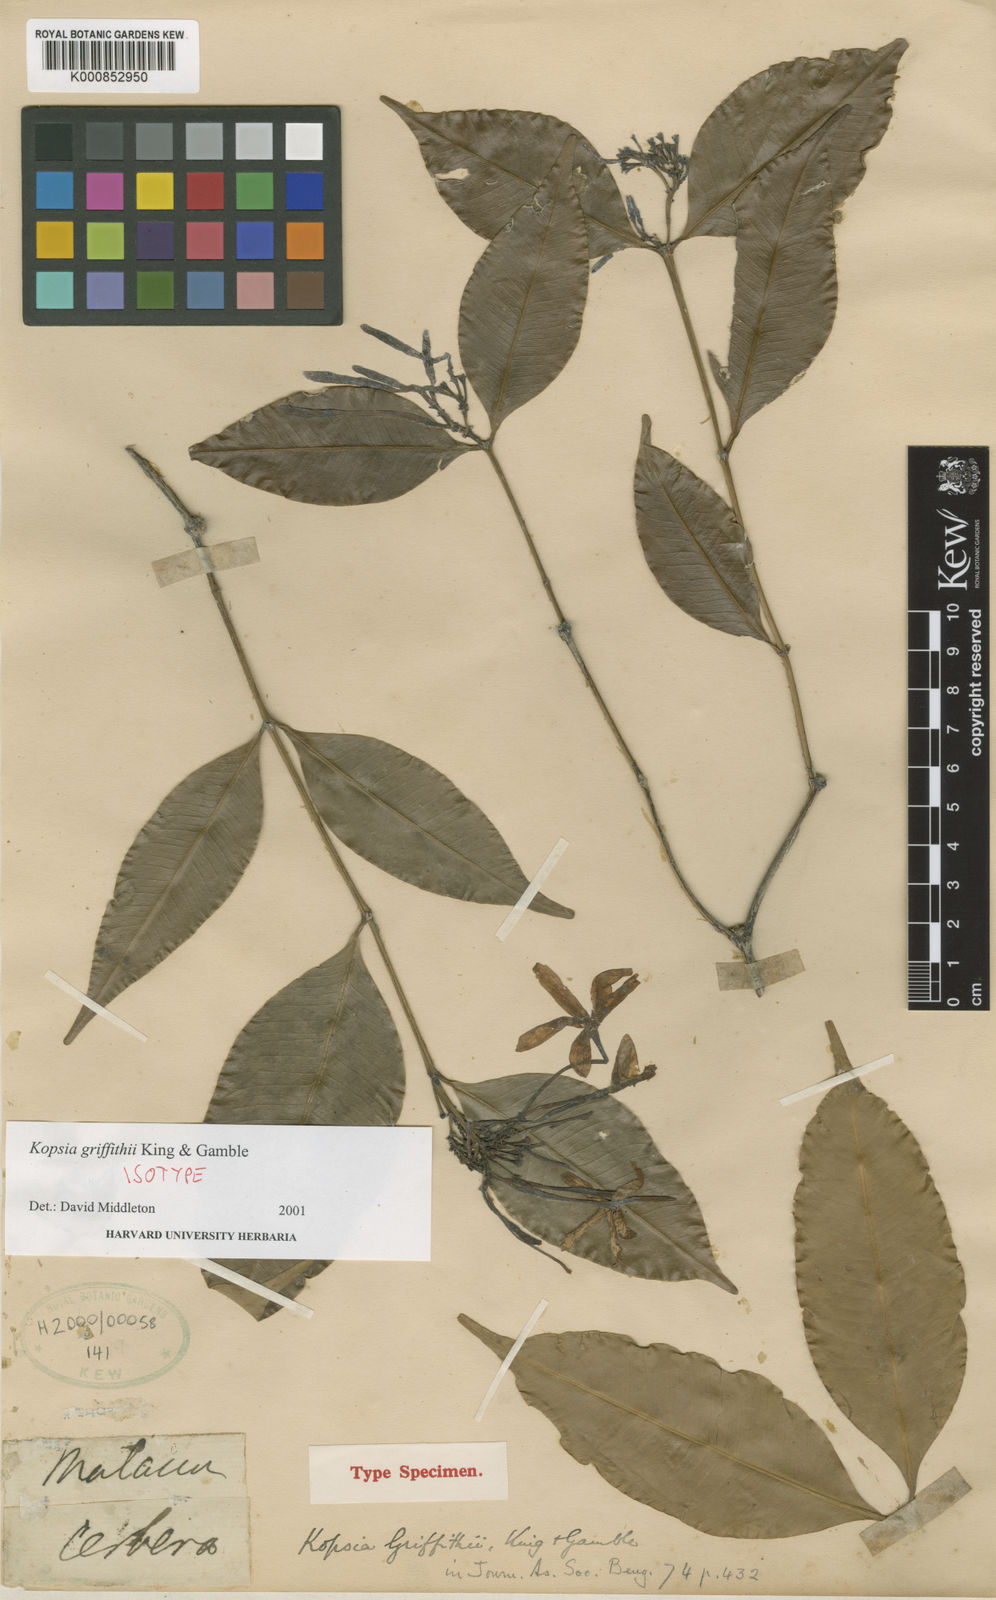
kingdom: Plantae
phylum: Tracheophyta
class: Magnoliopsida
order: Gentianales
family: Apocynaceae
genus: Kopsia
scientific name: Kopsia griffithii
